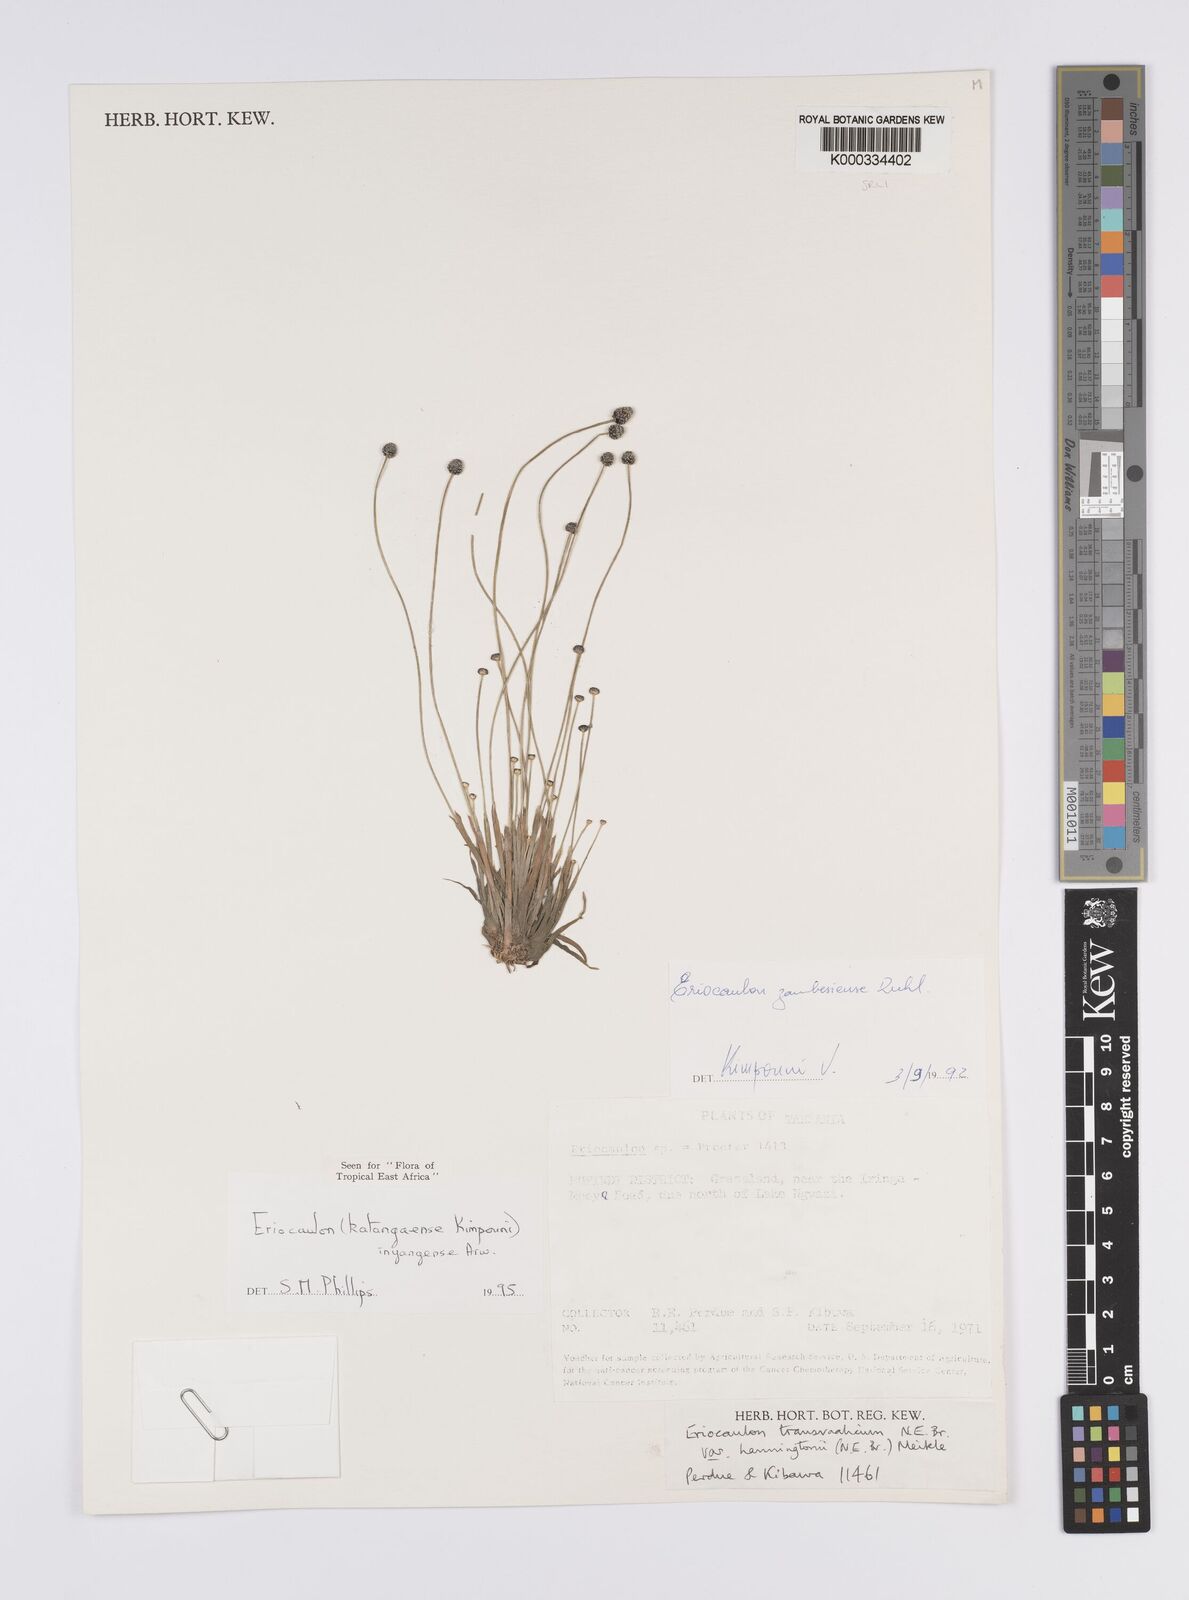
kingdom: Plantae
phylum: Tracheophyta
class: Liliopsida
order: Poales
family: Eriocaulaceae
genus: Eriocaulon
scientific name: Eriocaulon inyangense
